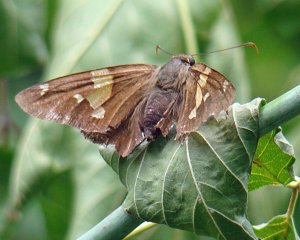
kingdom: Animalia
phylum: Arthropoda
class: Insecta
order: Lepidoptera
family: Hesperiidae
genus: Epargyreus
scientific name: Epargyreus clarus
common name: Silver-spotted Skipper
